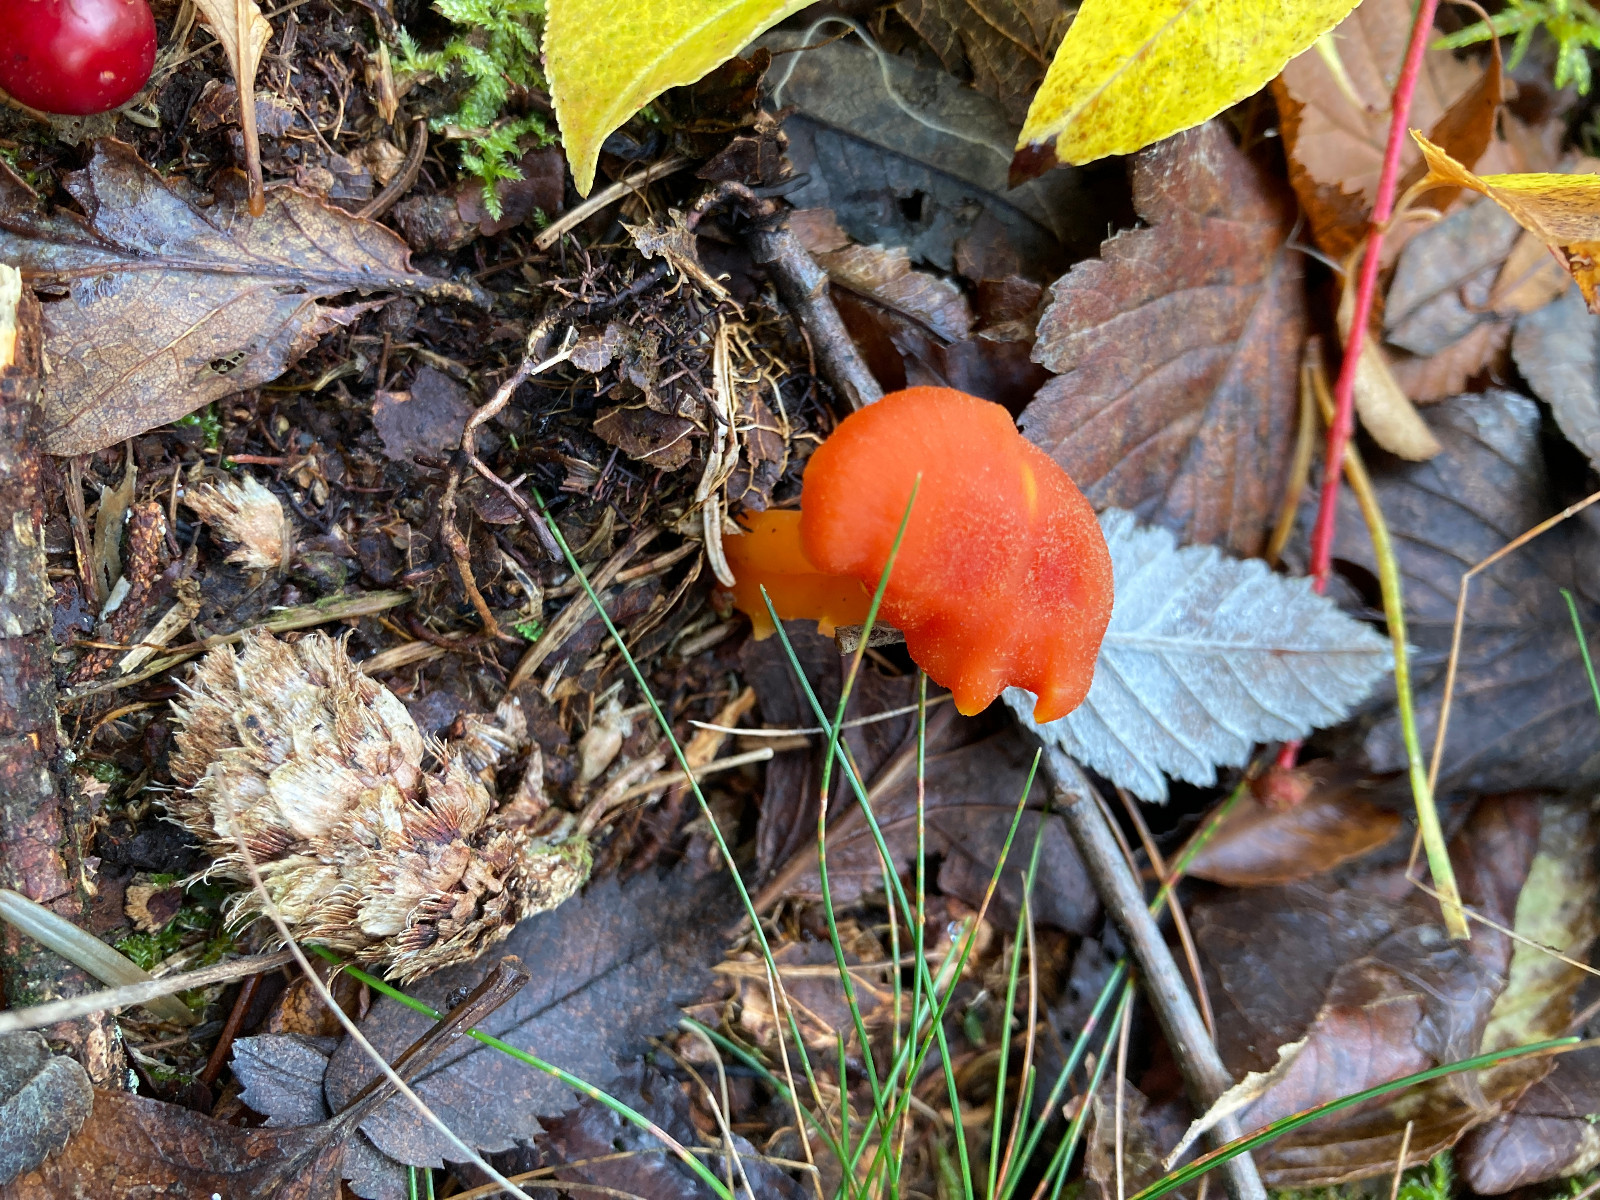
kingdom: Fungi
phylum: Basidiomycota
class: Agaricomycetes
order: Agaricales
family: Hygrophoraceae
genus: Hygrocybe
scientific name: Hygrocybe miniata
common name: mønje-vokshat
